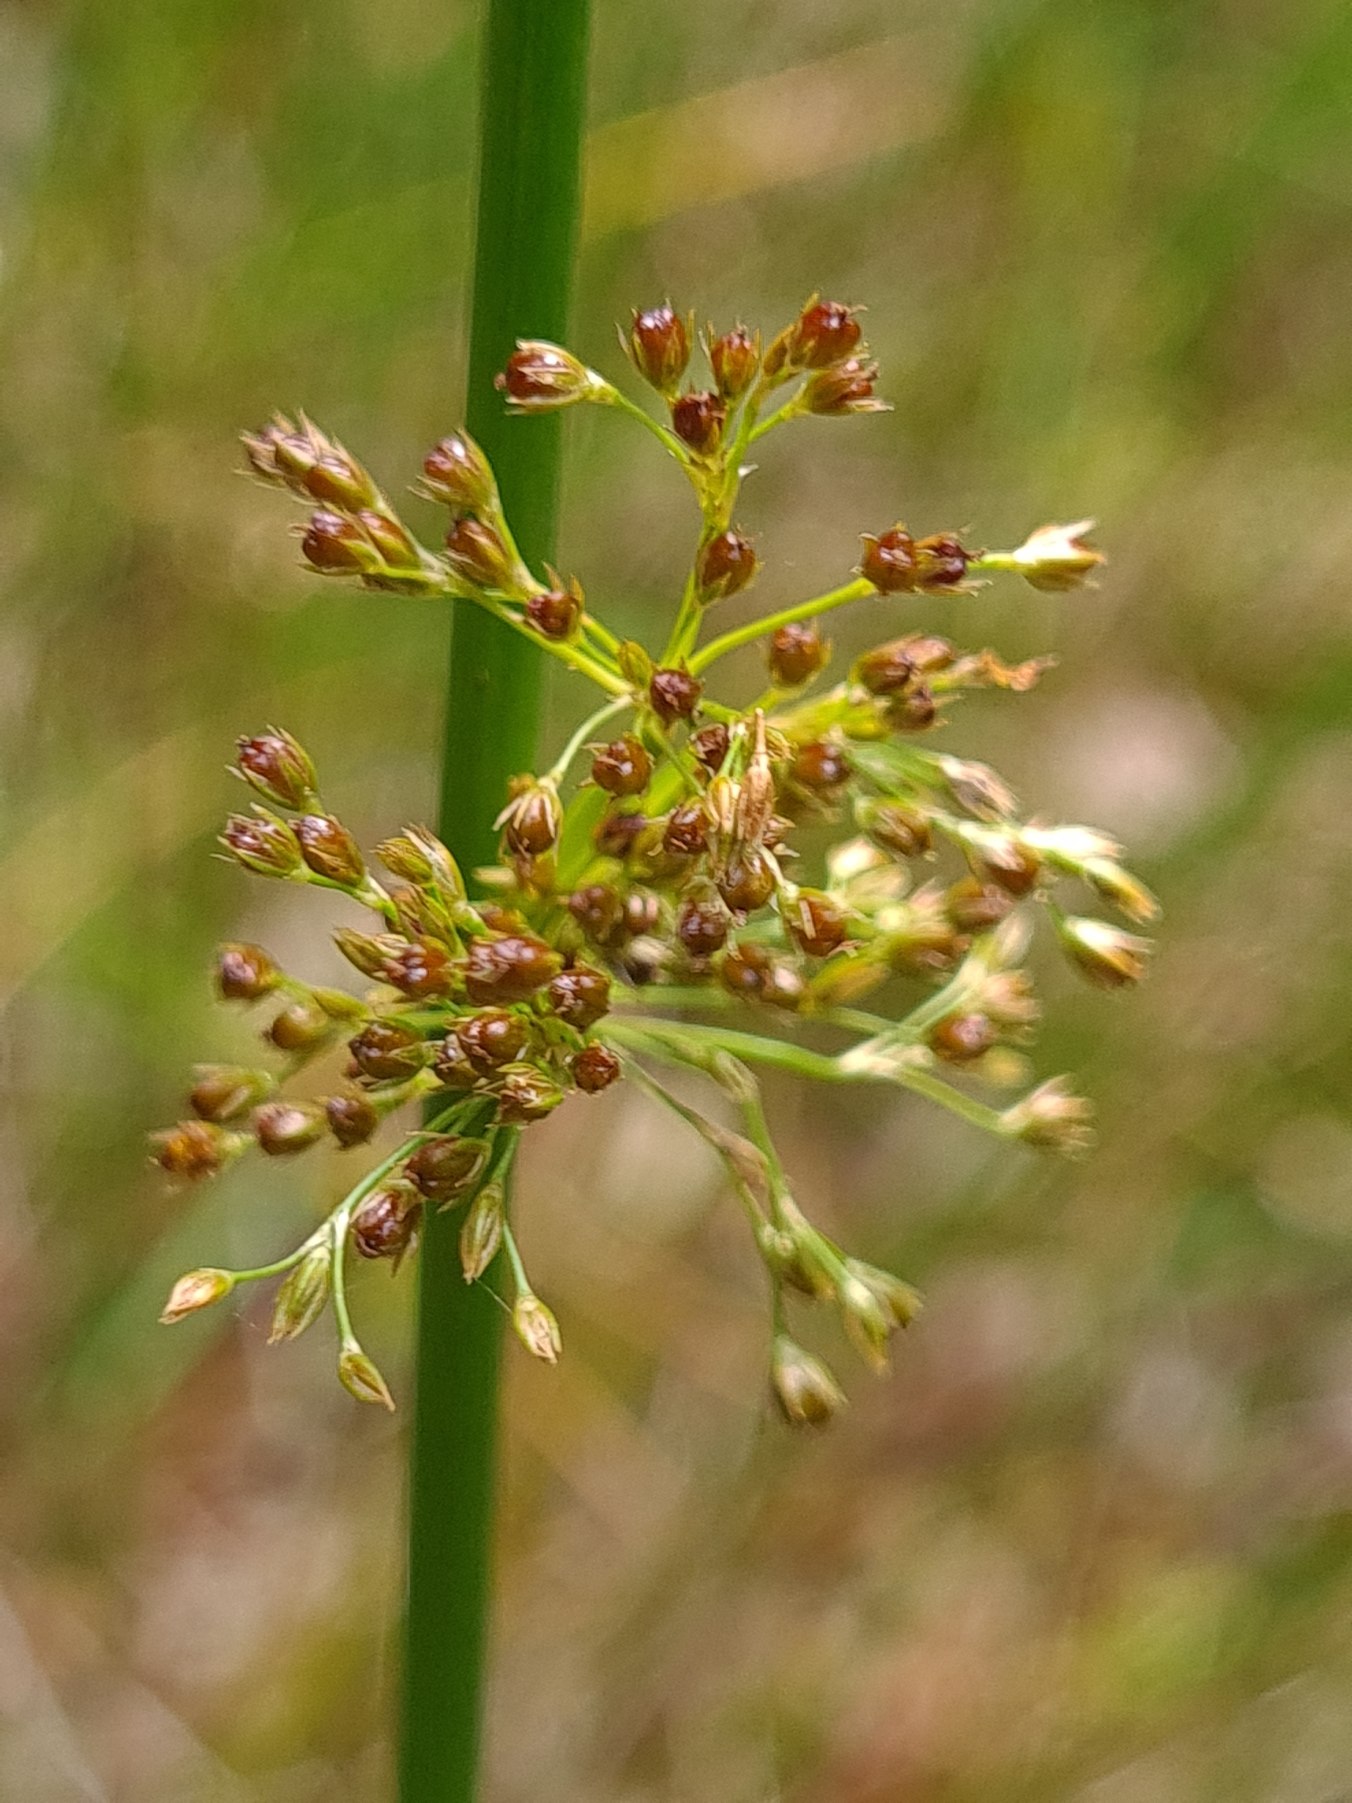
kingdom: Plantae
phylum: Tracheophyta
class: Liliopsida
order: Poales
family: Juncaceae
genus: Juncus
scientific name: Juncus effusus
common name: Lyse-siv
